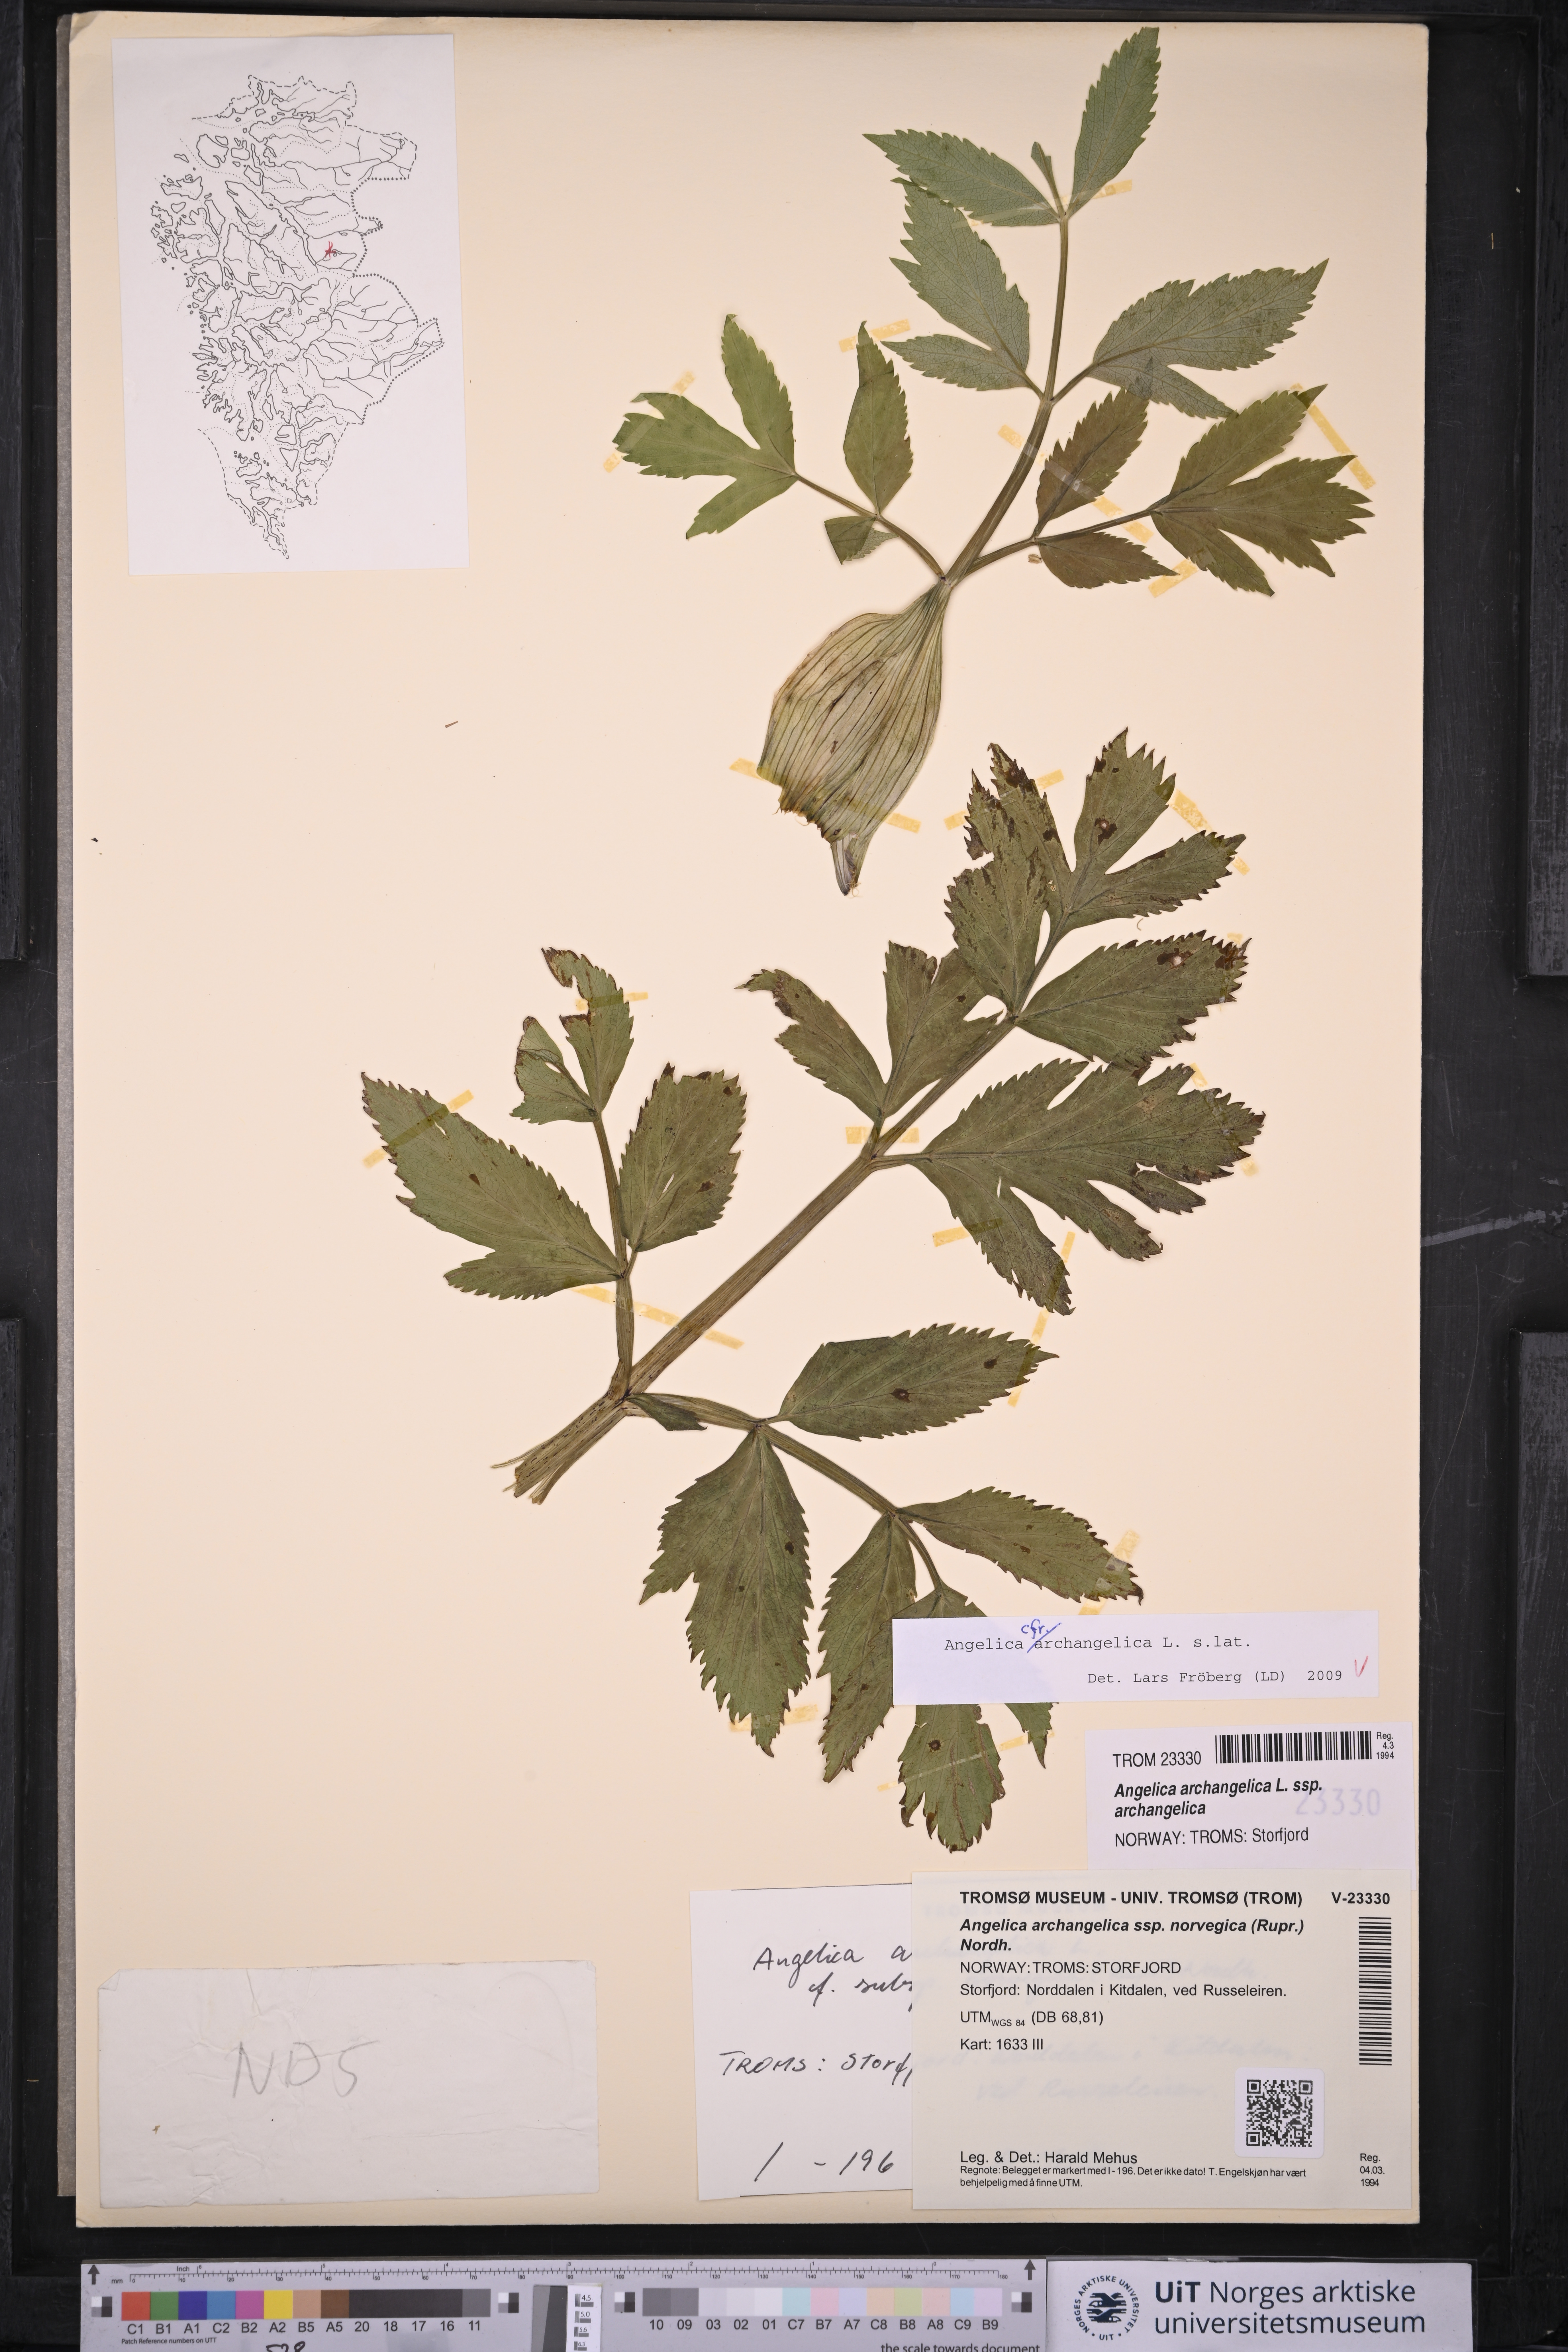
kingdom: Plantae
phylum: Tracheophyta
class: Magnoliopsida
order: Apiales
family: Apiaceae
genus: Angelica
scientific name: Angelica archangelica
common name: Garden angelica
